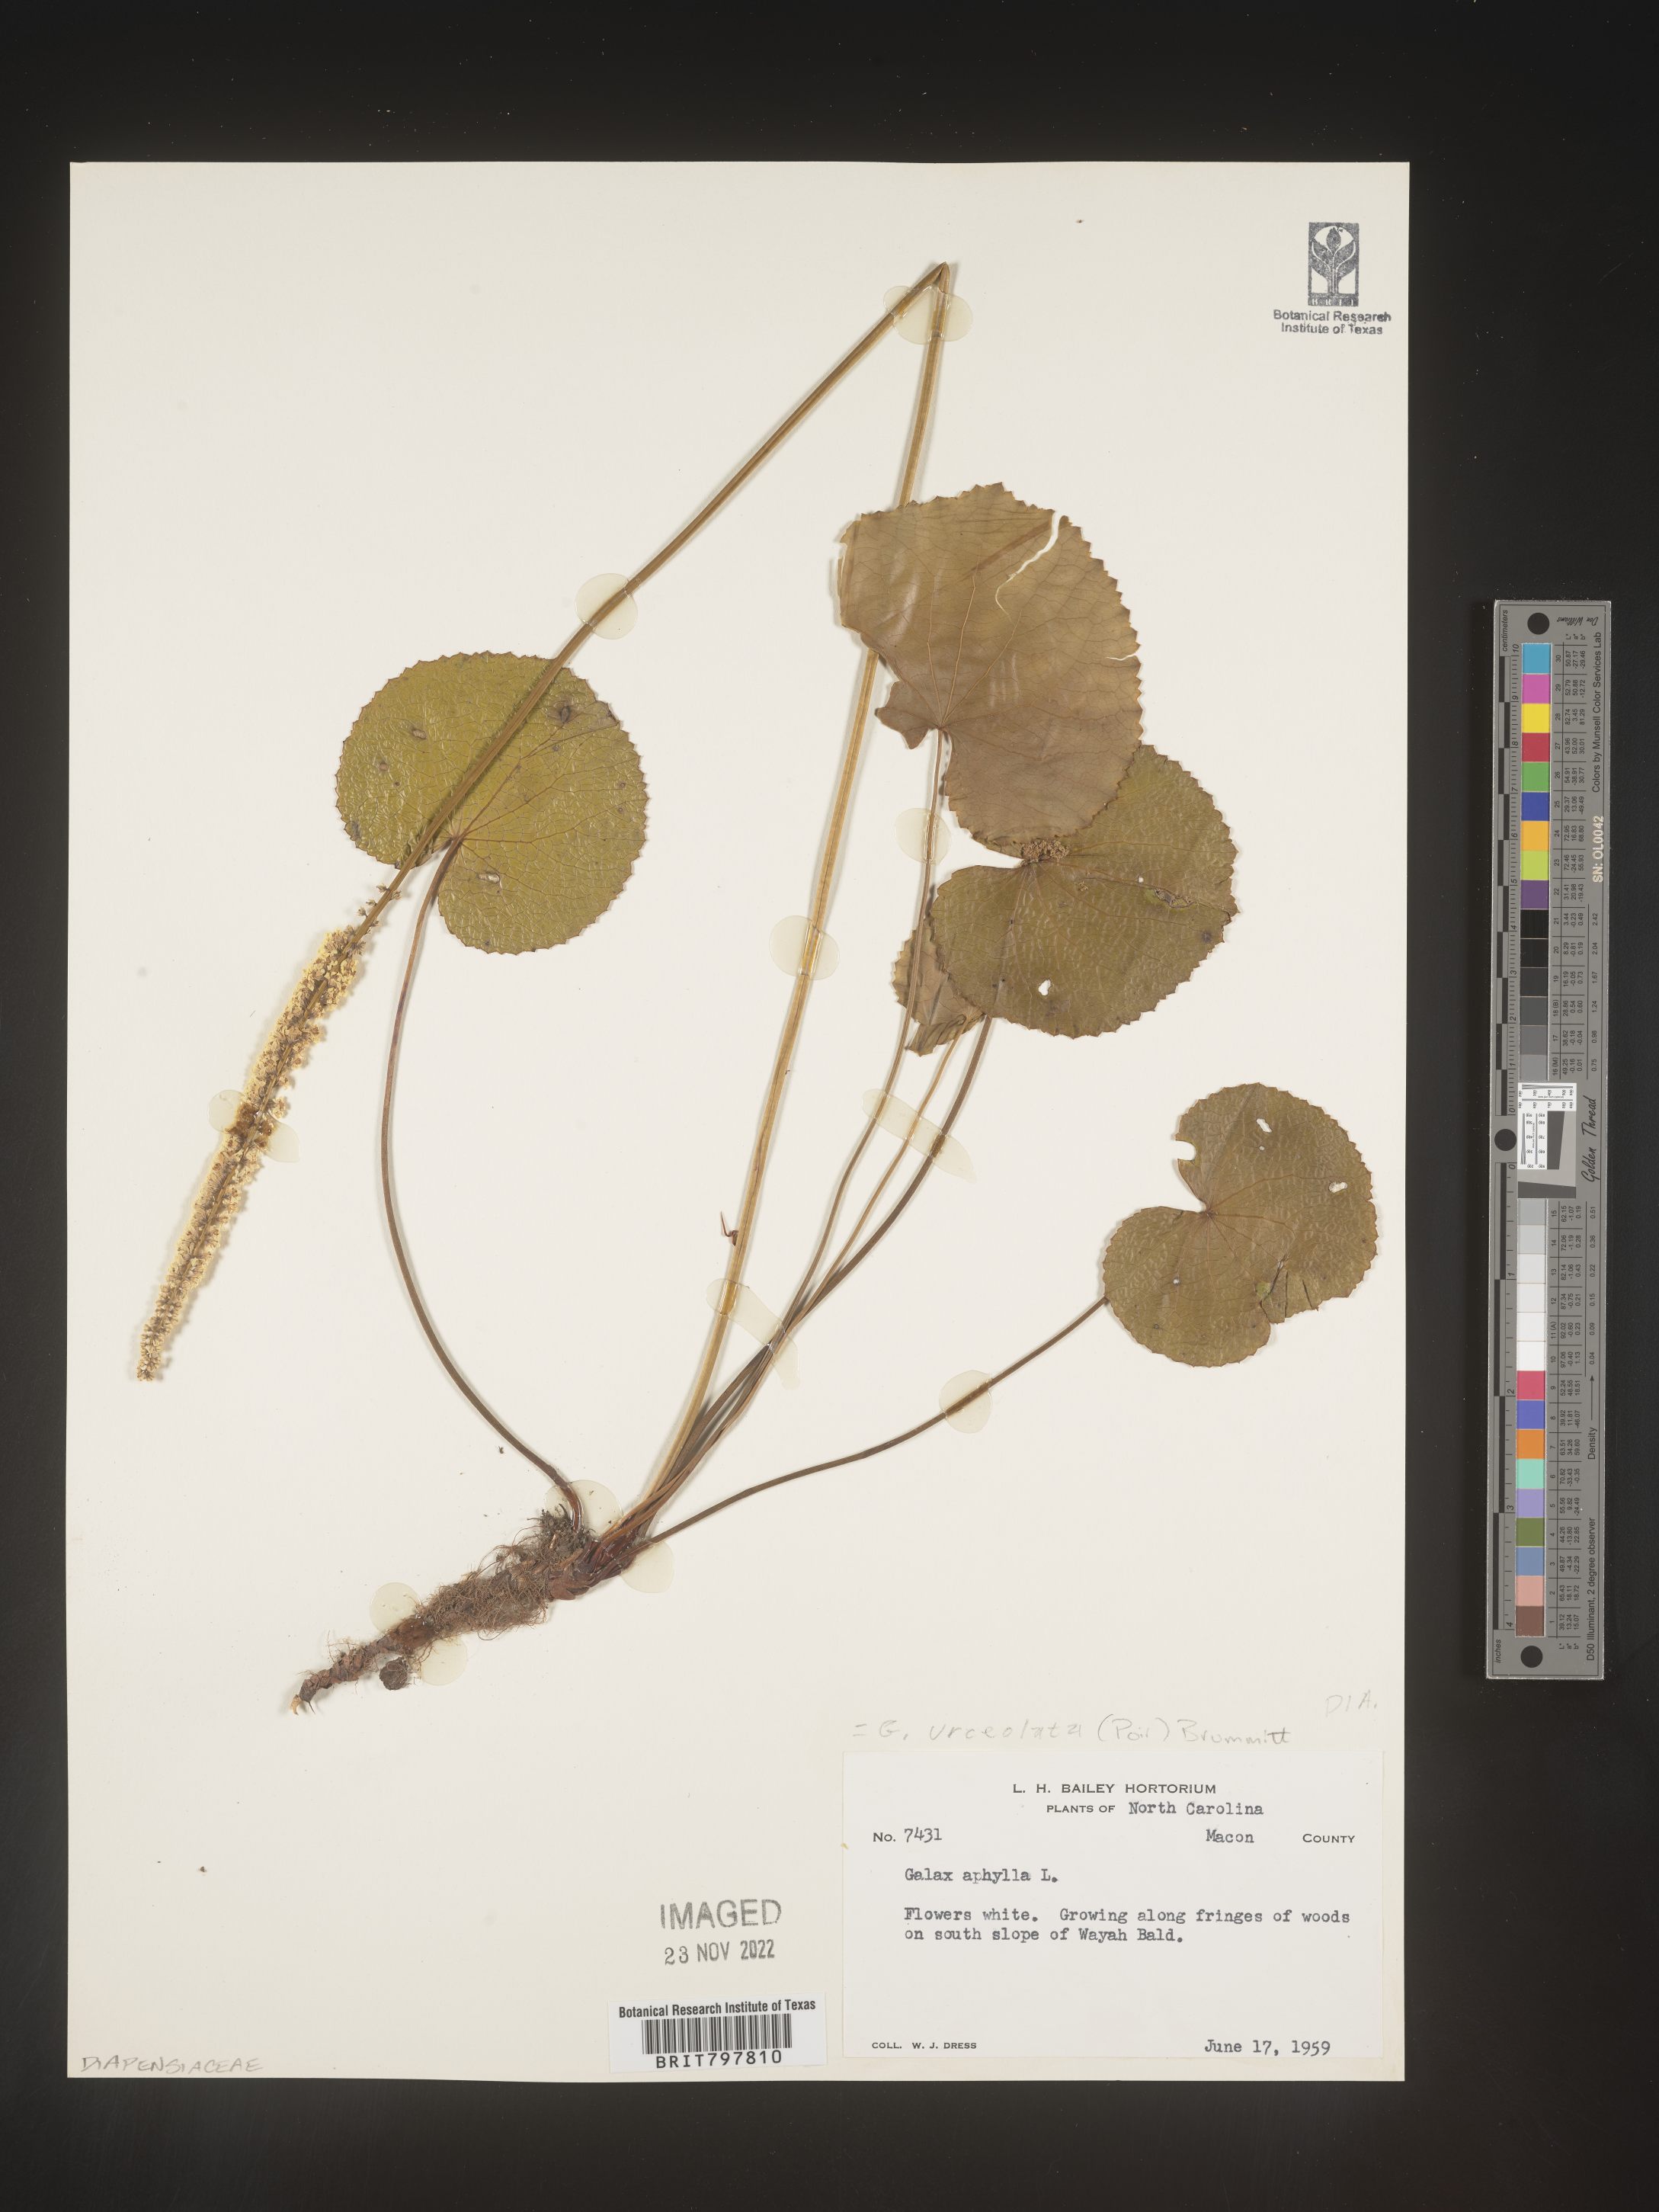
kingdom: Plantae
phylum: Tracheophyta
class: Magnoliopsida
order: Ericales
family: Diapensiaceae
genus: Galax
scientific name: Galax
